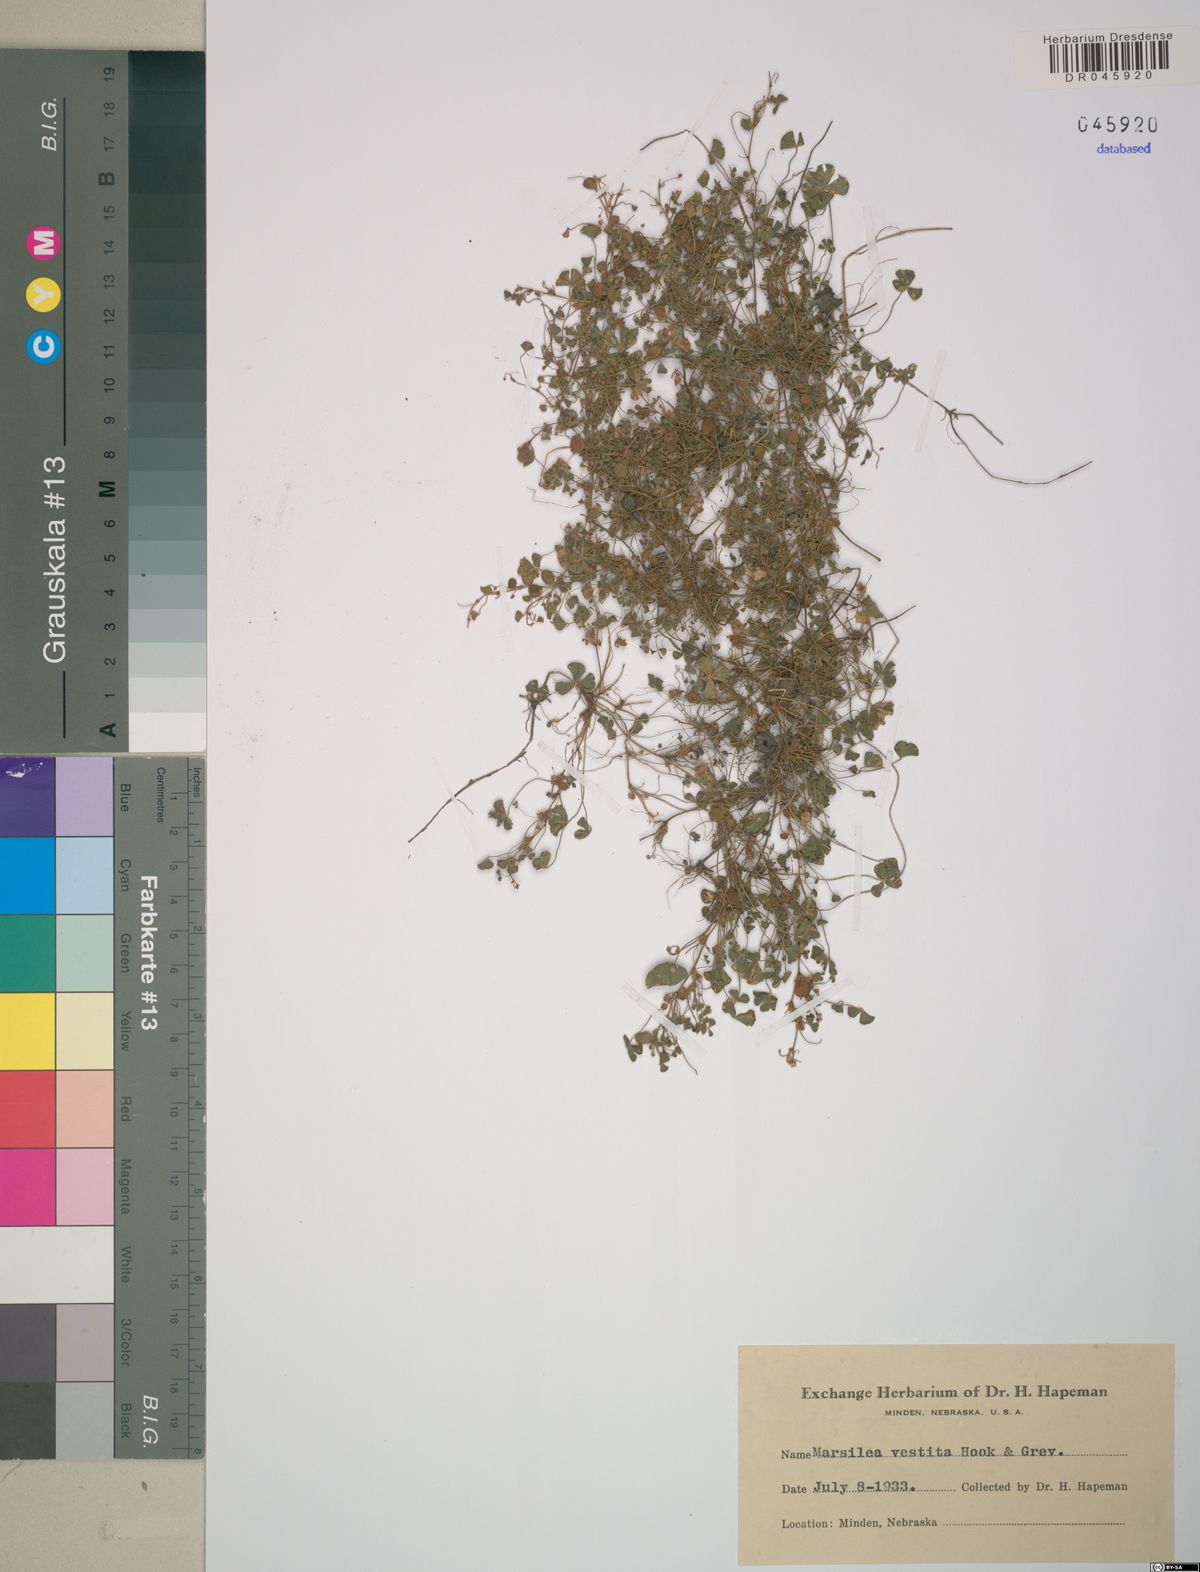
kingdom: Plantae
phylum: Tracheophyta
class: Polypodiopsida
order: Salviniales
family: Marsileaceae
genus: Marsilea
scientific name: Marsilea vestita
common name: Hooked-pepperwort
